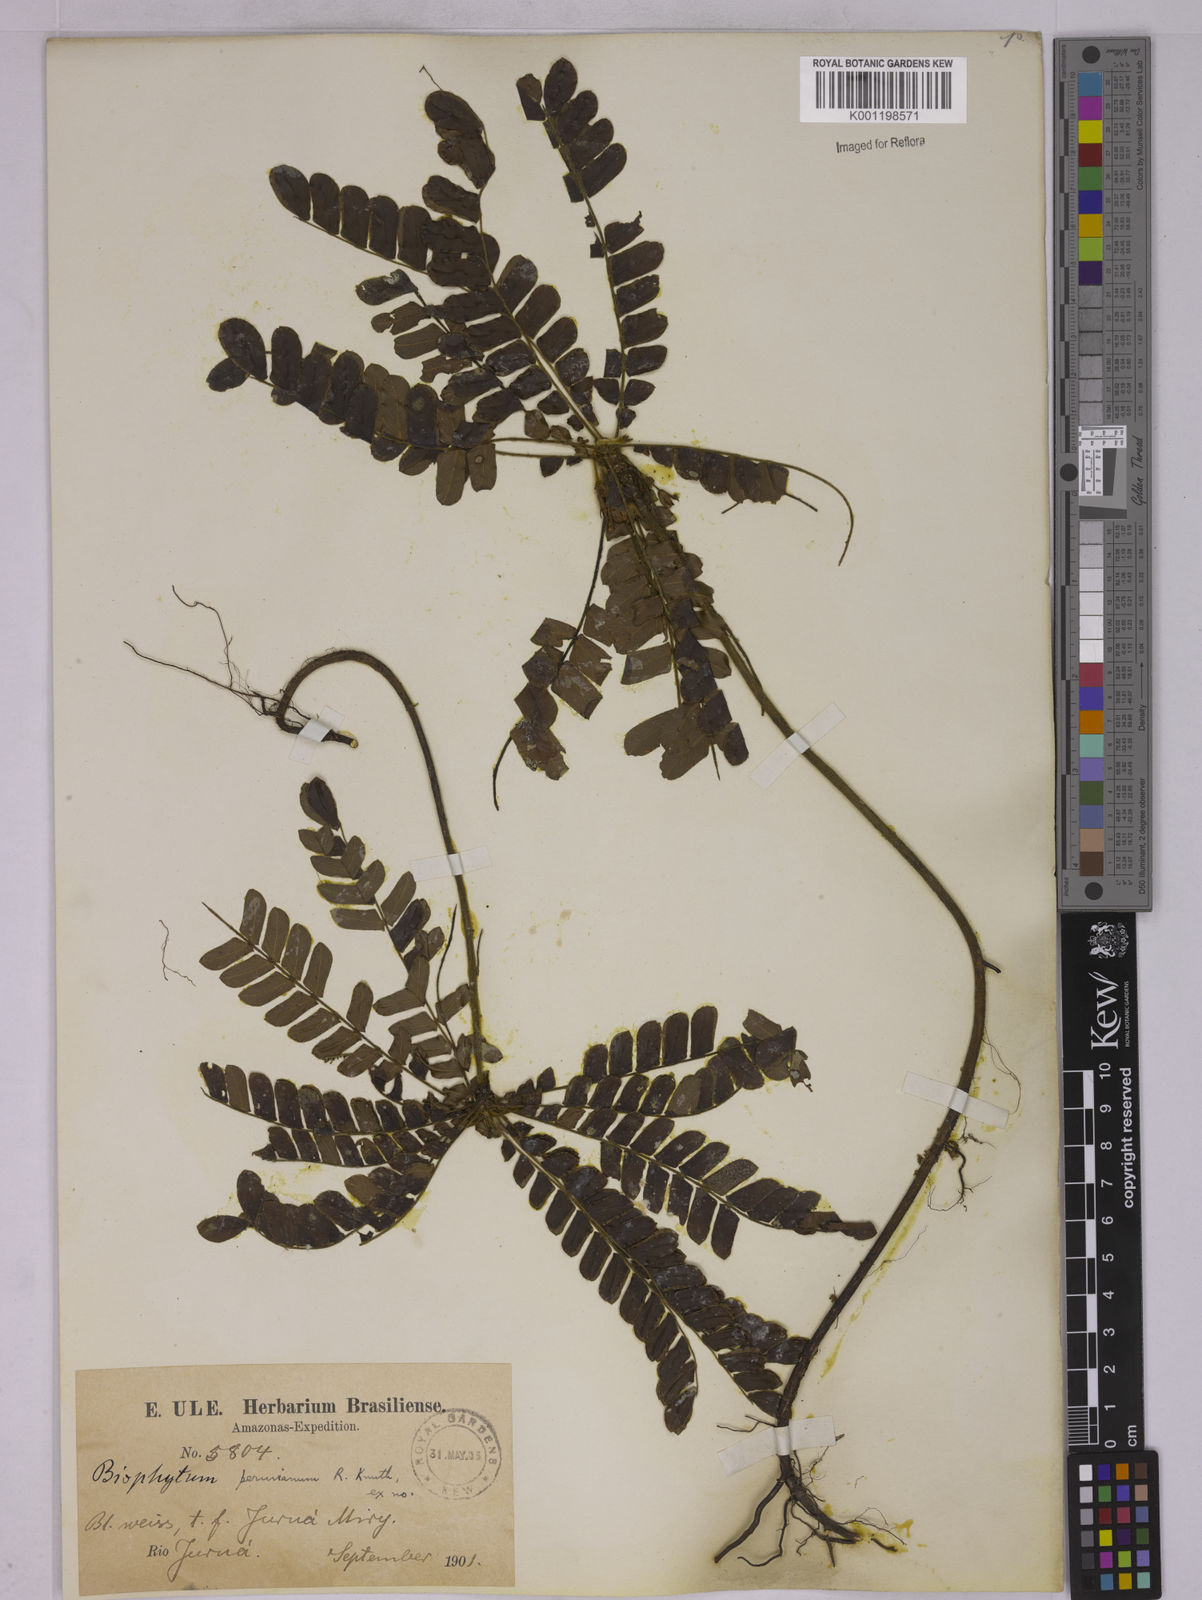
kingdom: Plantae
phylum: Tracheophyta
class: Magnoliopsida
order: Oxalidales
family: Oxalidaceae
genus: Biophytum
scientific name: Biophytum peruvianum
